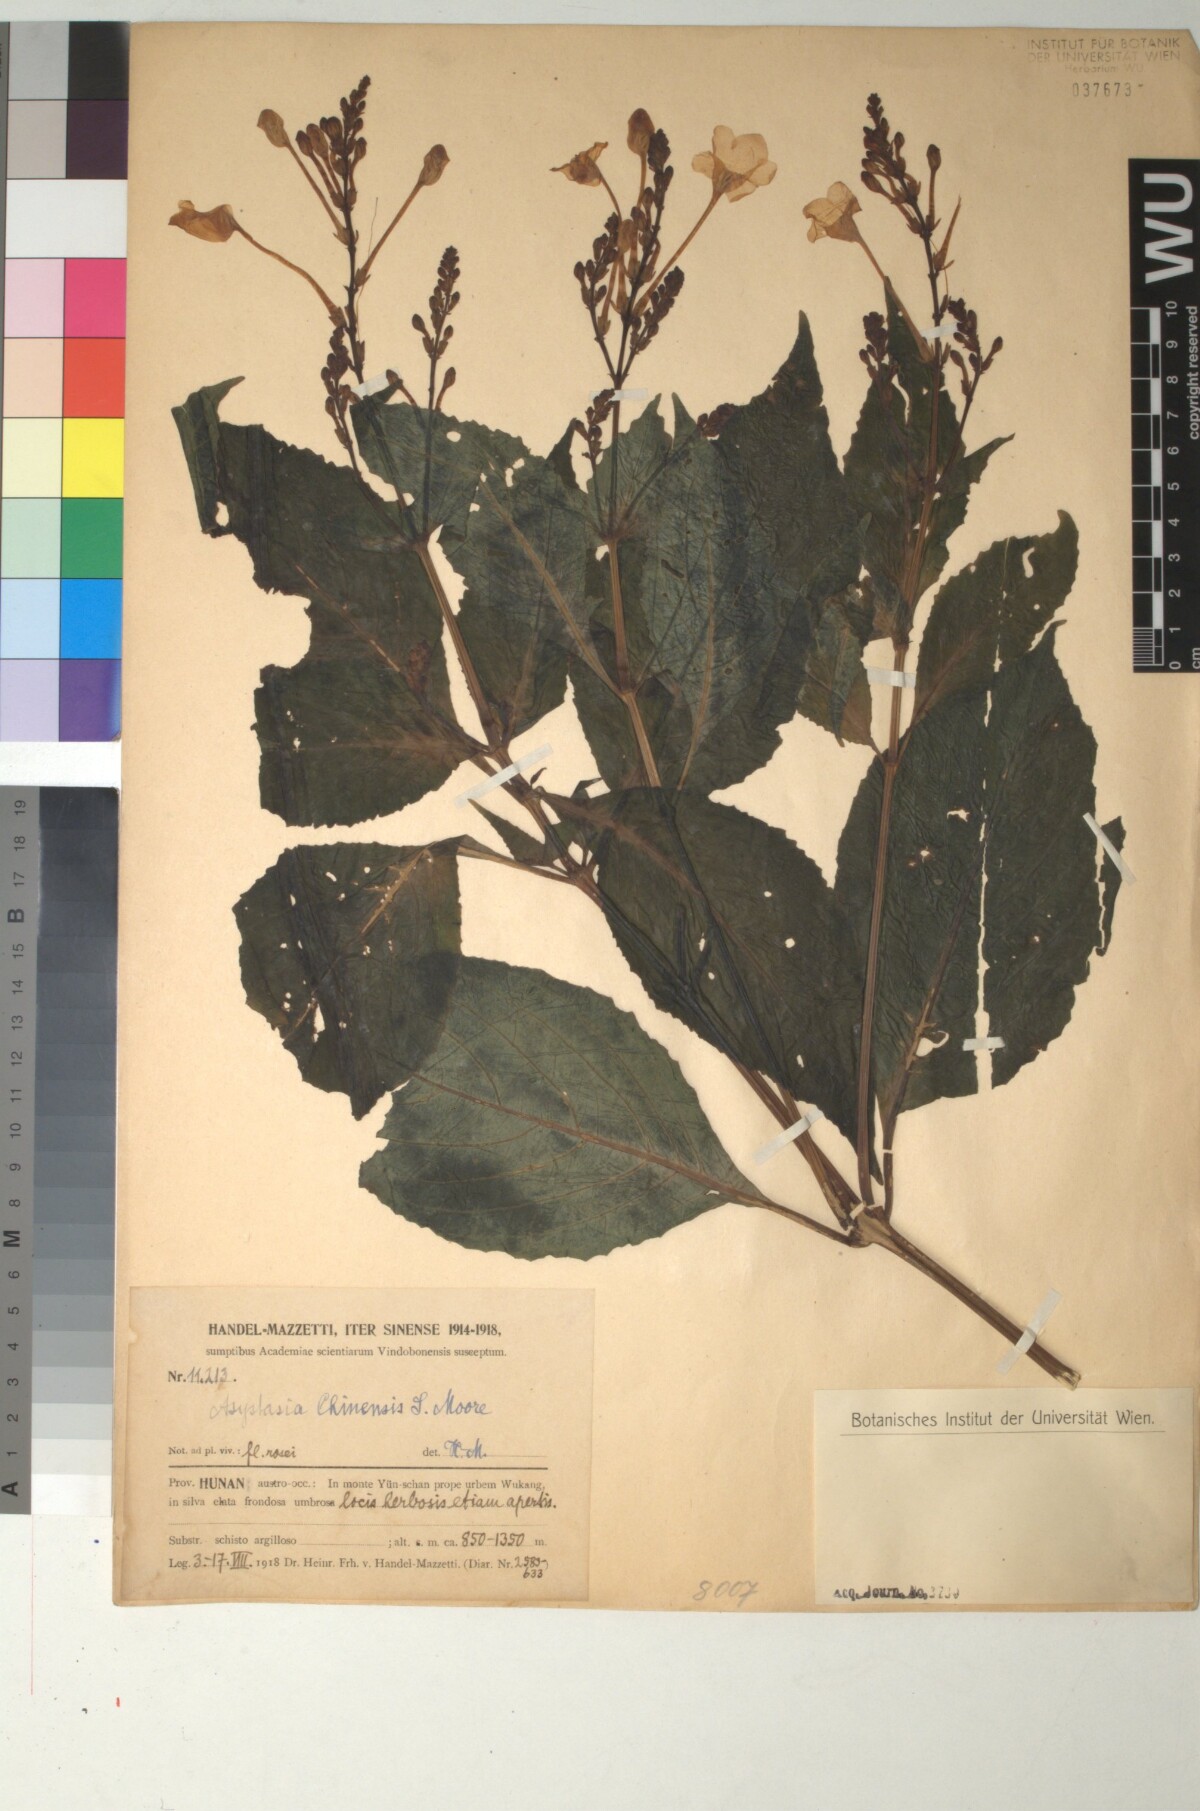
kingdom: Plantae
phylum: Tracheophyta
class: Magnoliopsida
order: Lamiales
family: Acanthaceae
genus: Mackaya
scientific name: Mackaya neesiana
